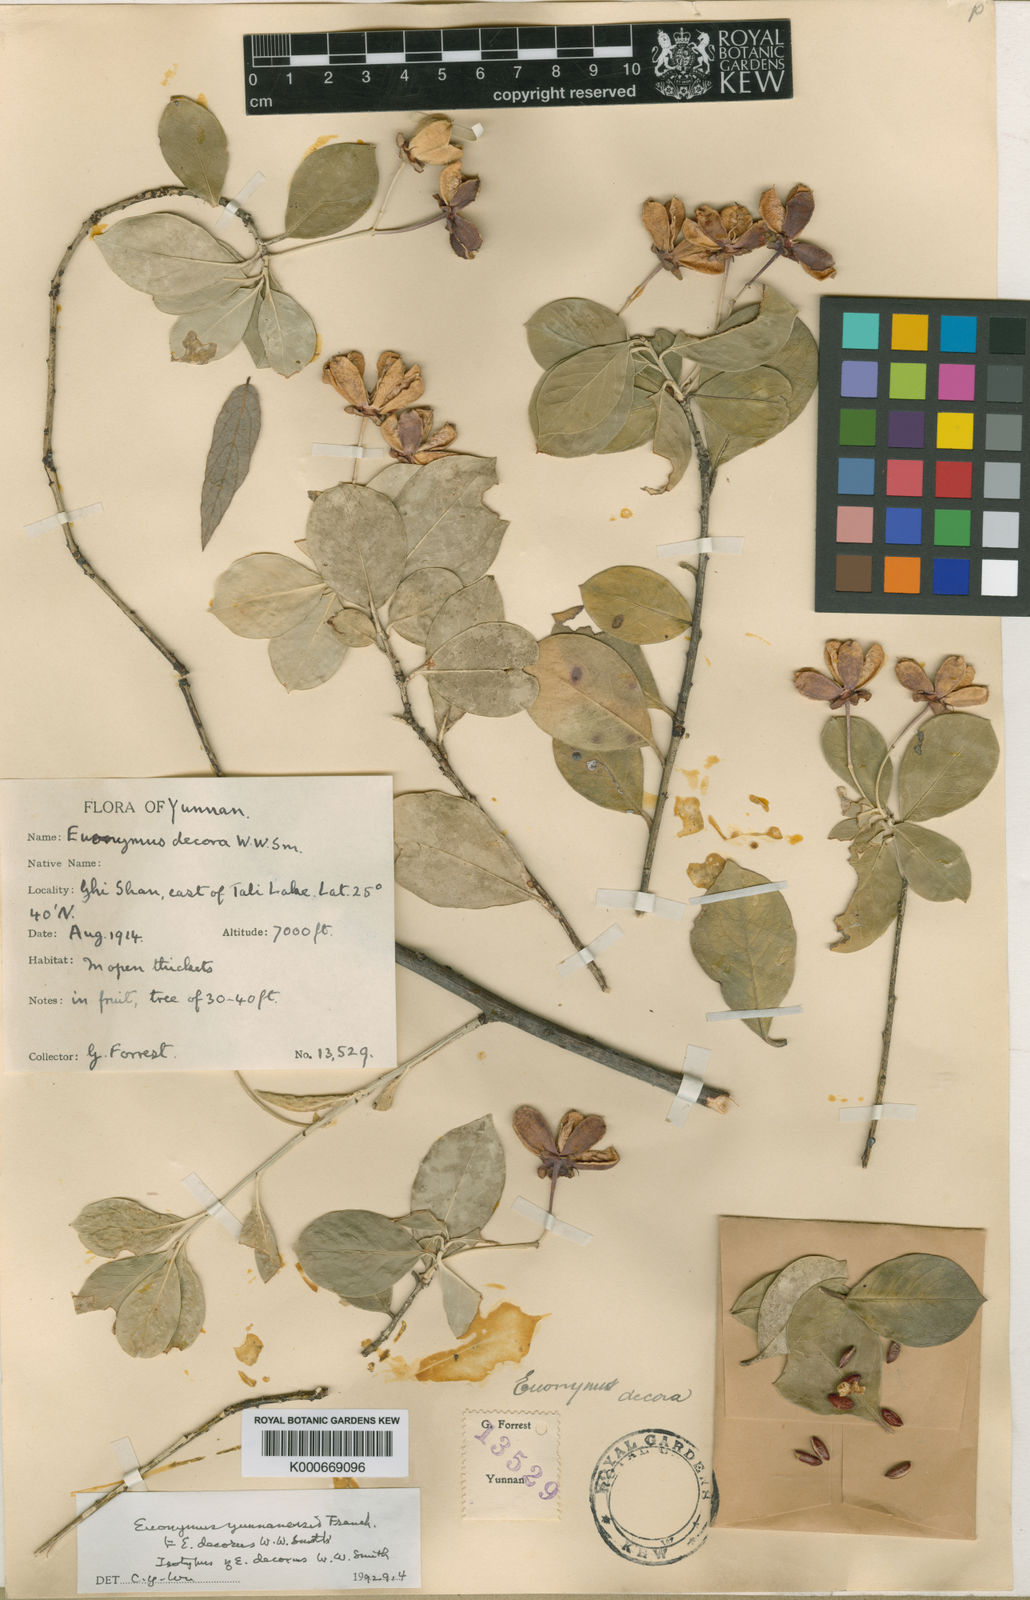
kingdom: Plantae
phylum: Tracheophyta
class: Magnoliopsida
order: Celastrales
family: Celastraceae
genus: Euonymus
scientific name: Euonymus yunnanensis
